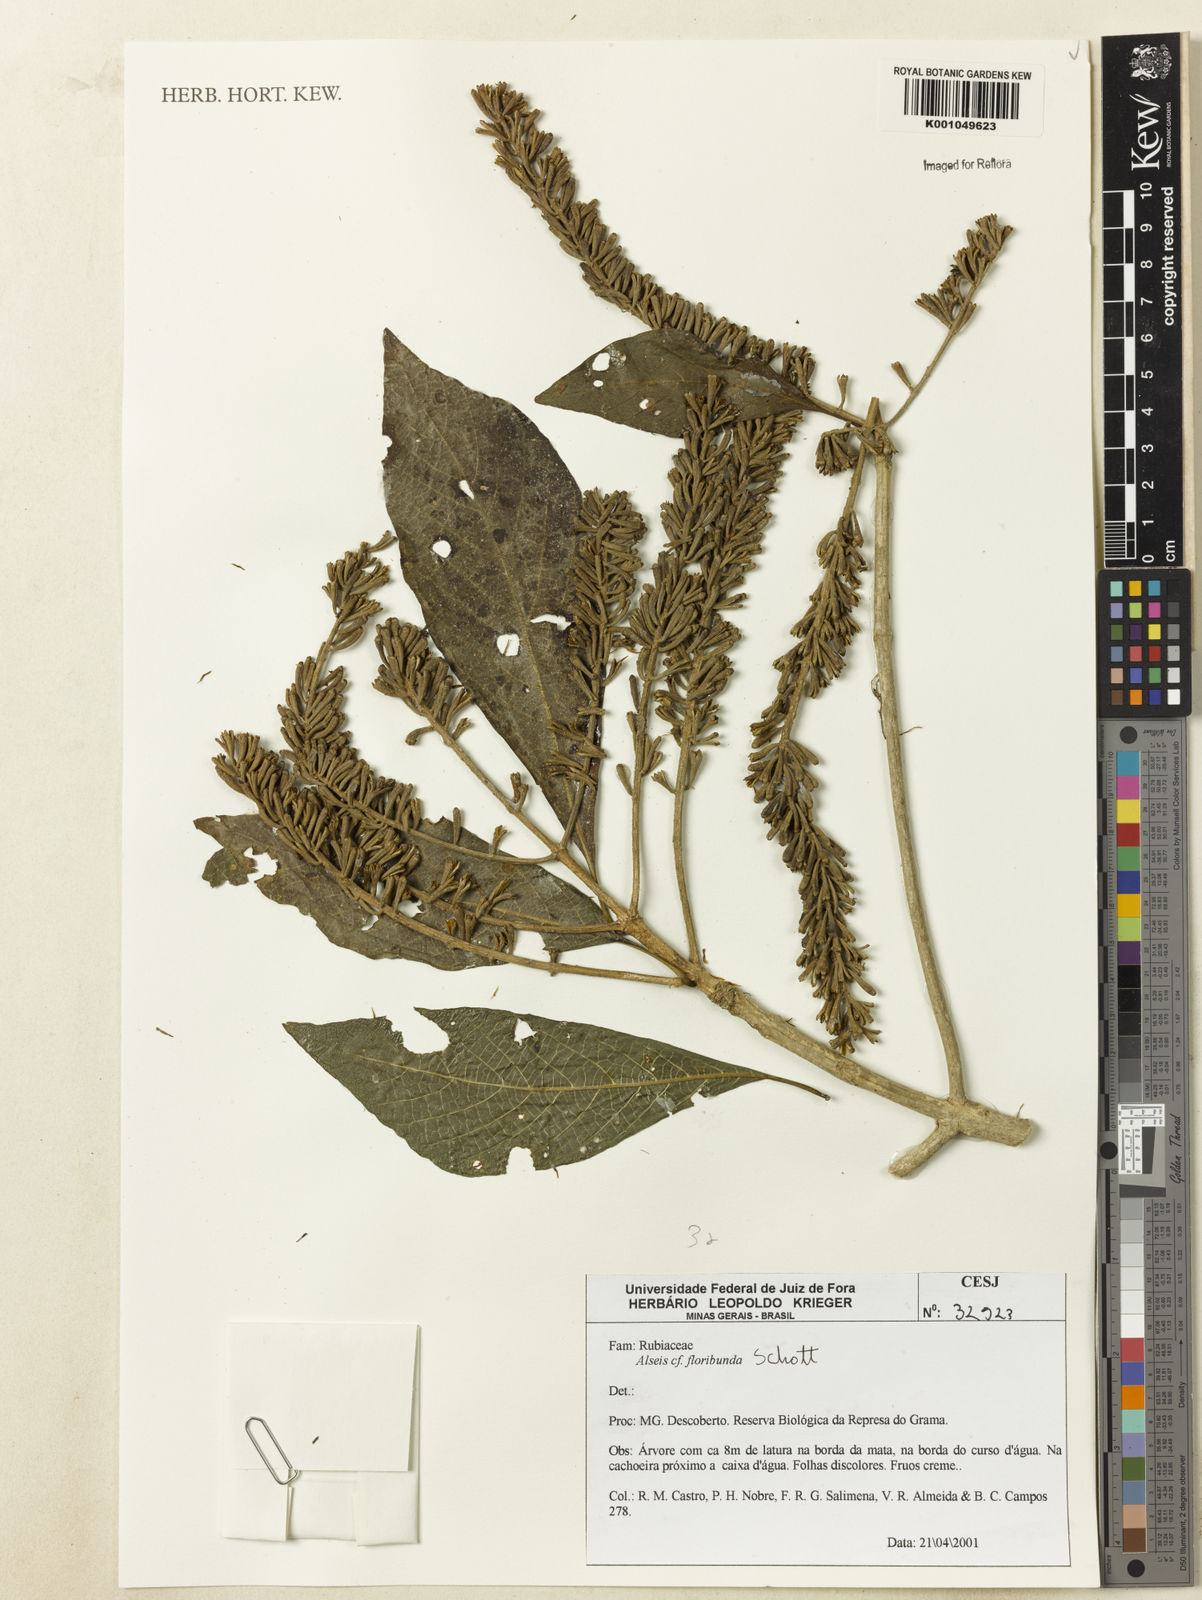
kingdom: Plantae
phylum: Tracheophyta
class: Magnoliopsida
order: Gentianales
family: Rubiaceae
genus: Alseis
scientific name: Alseis floribunda
